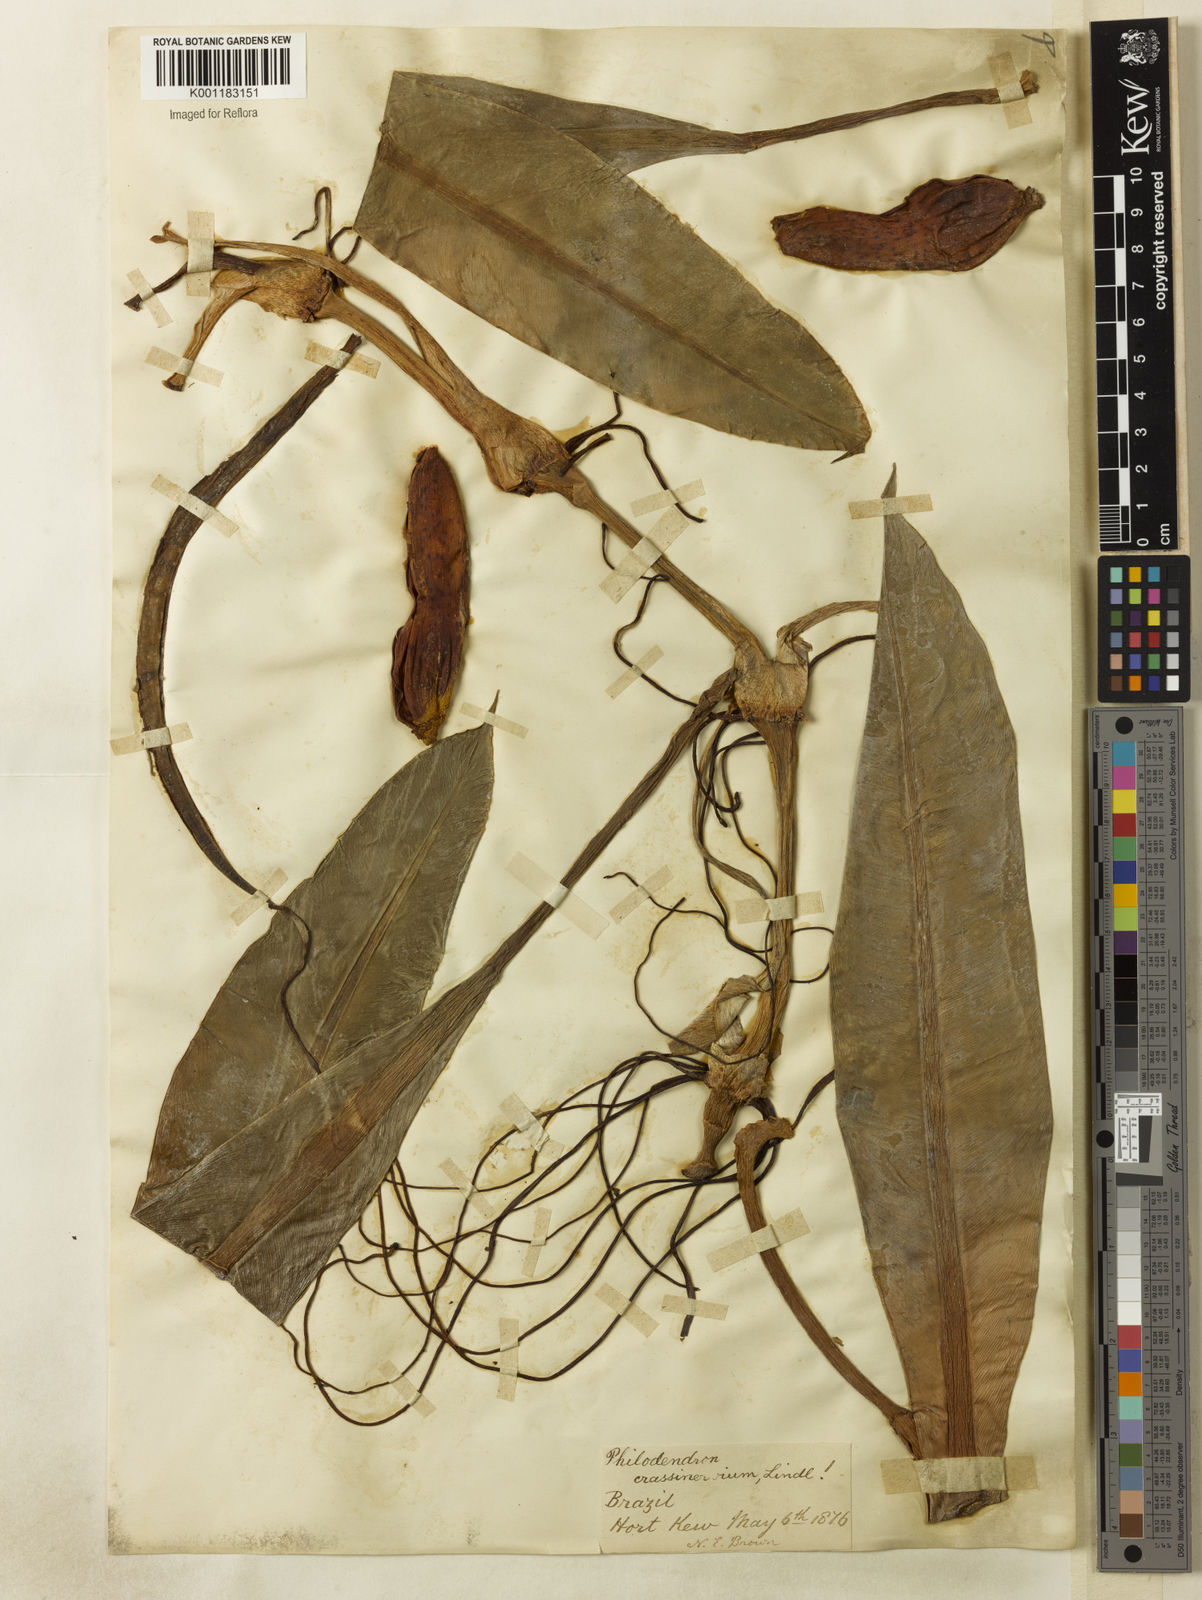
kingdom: Plantae
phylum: Tracheophyta
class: Liliopsida
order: Alismatales
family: Araceae
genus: Philodendron
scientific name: Philodendron crassinervium
